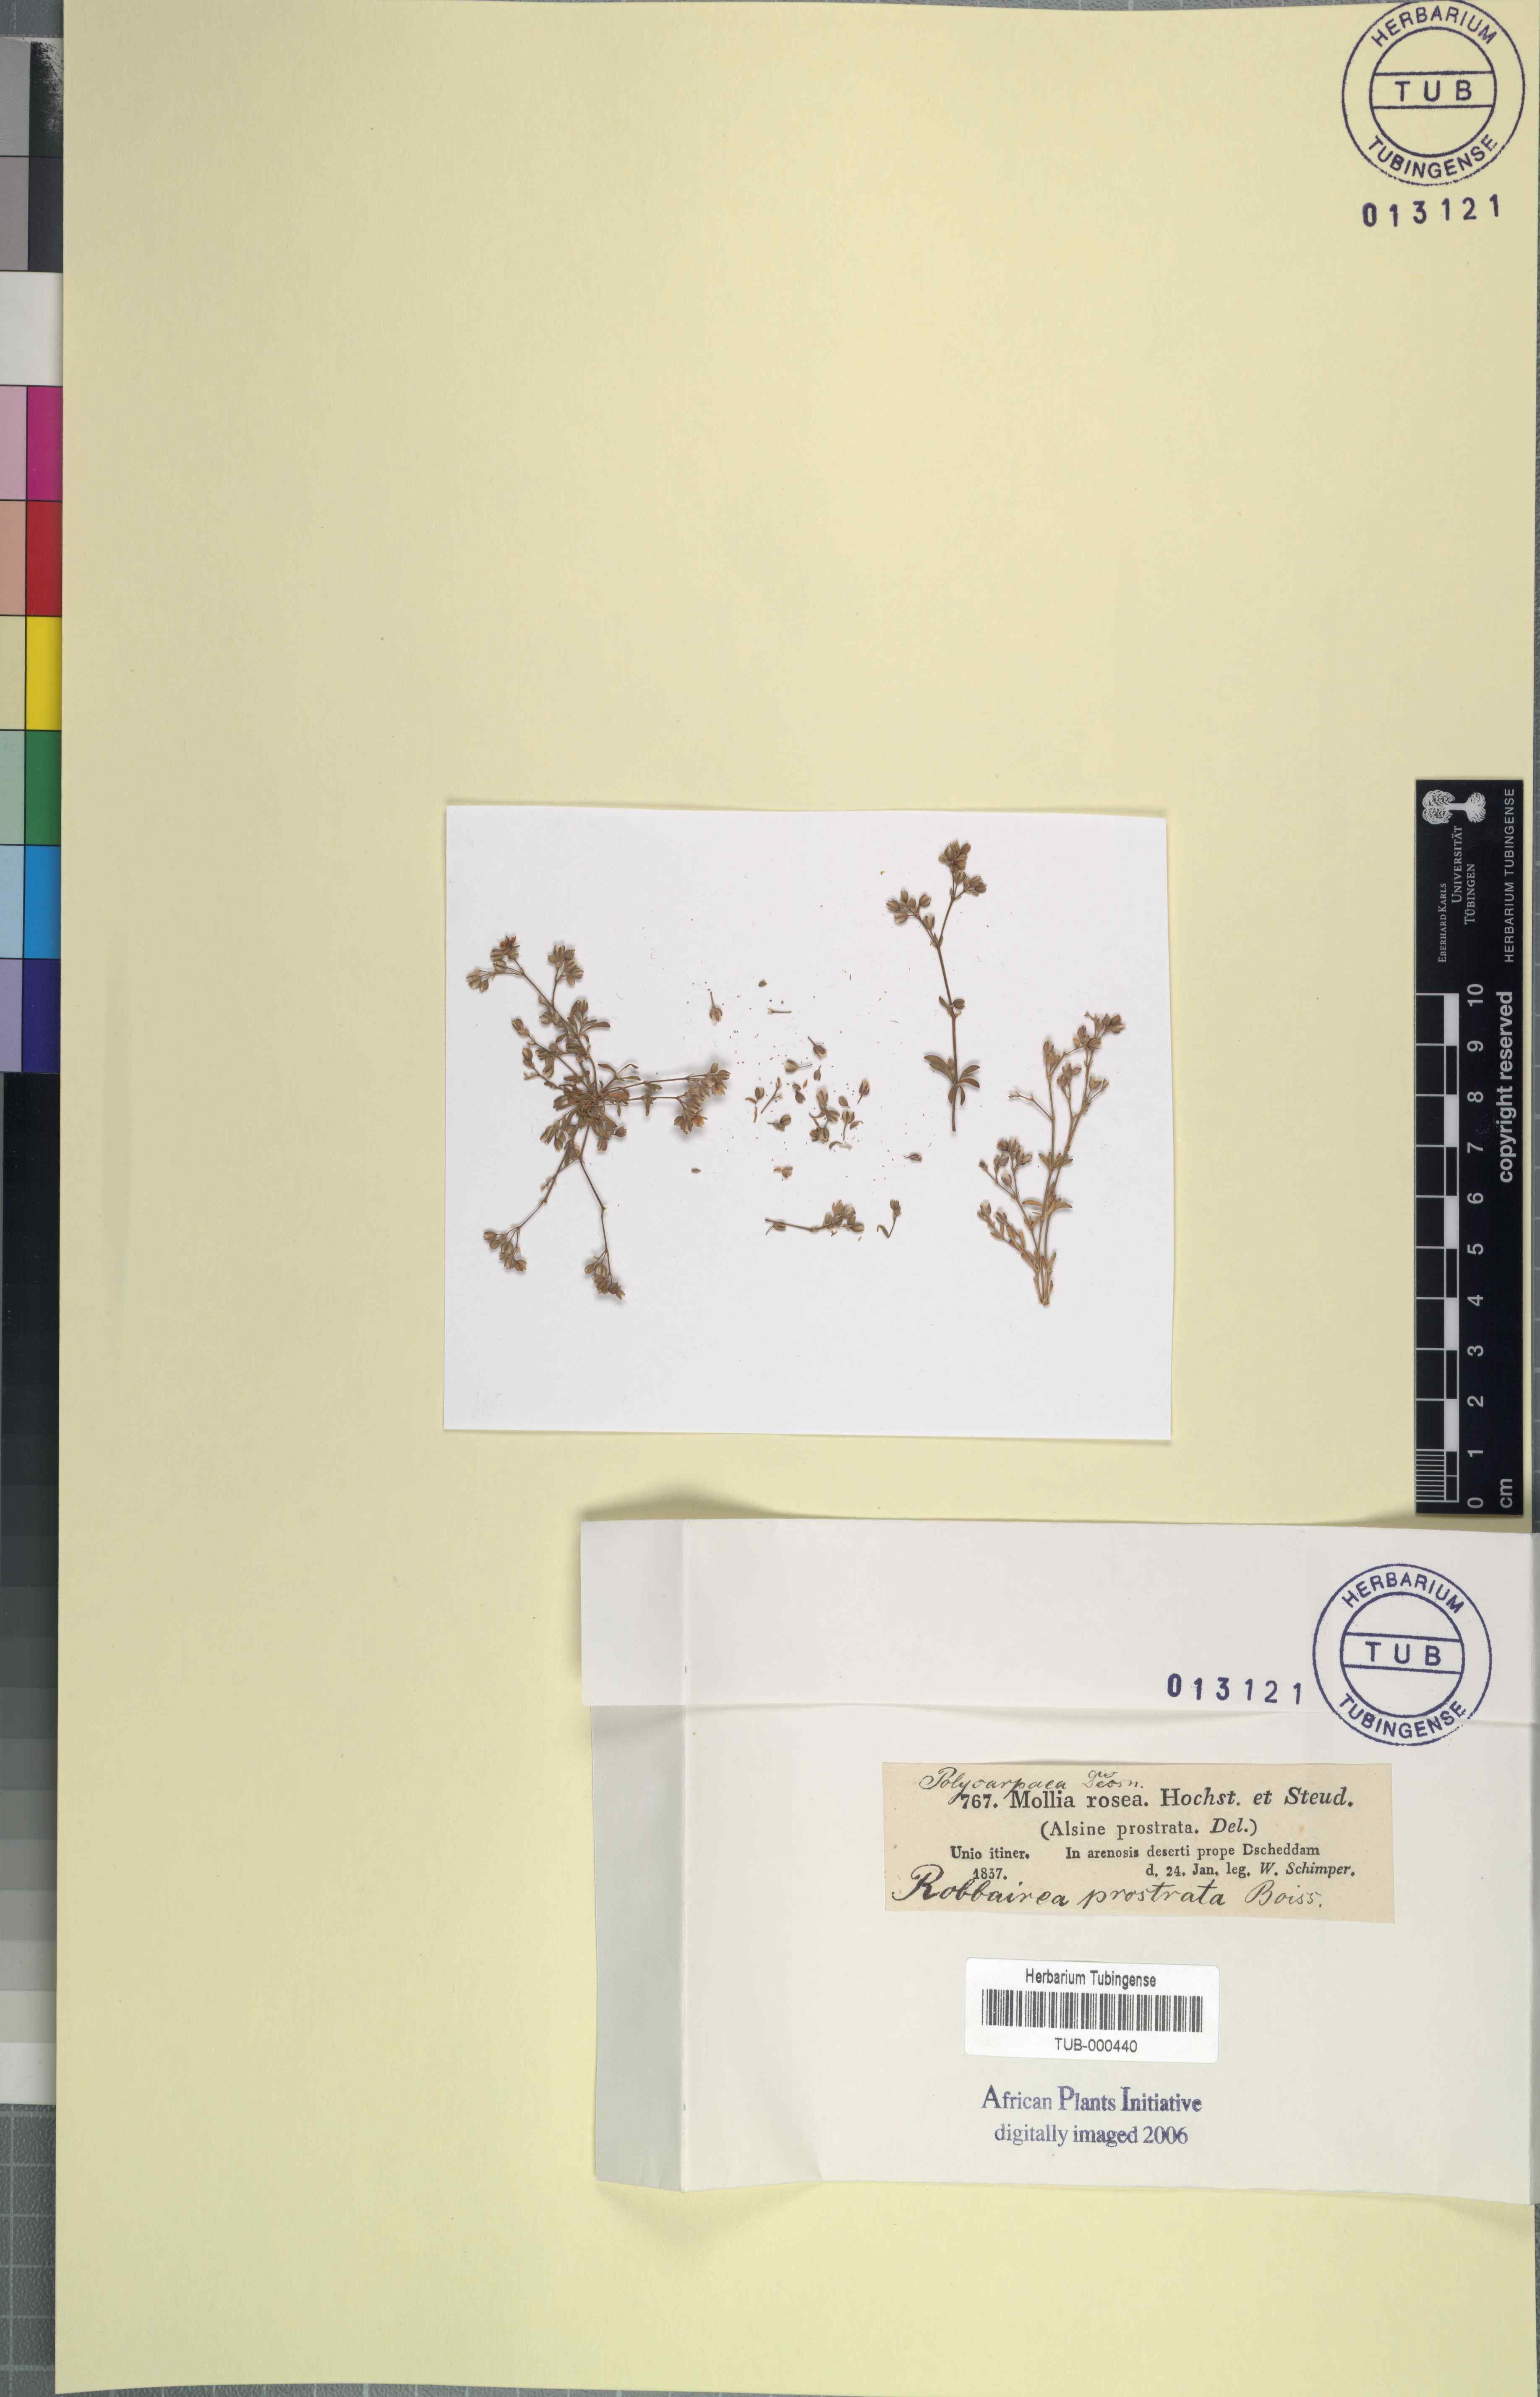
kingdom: Plantae
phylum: Tracheophyta
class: Magnoliopsida
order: Caryophyllales
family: Caryophyllaceae
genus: Polycarpon
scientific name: Polycarpon prostratum
